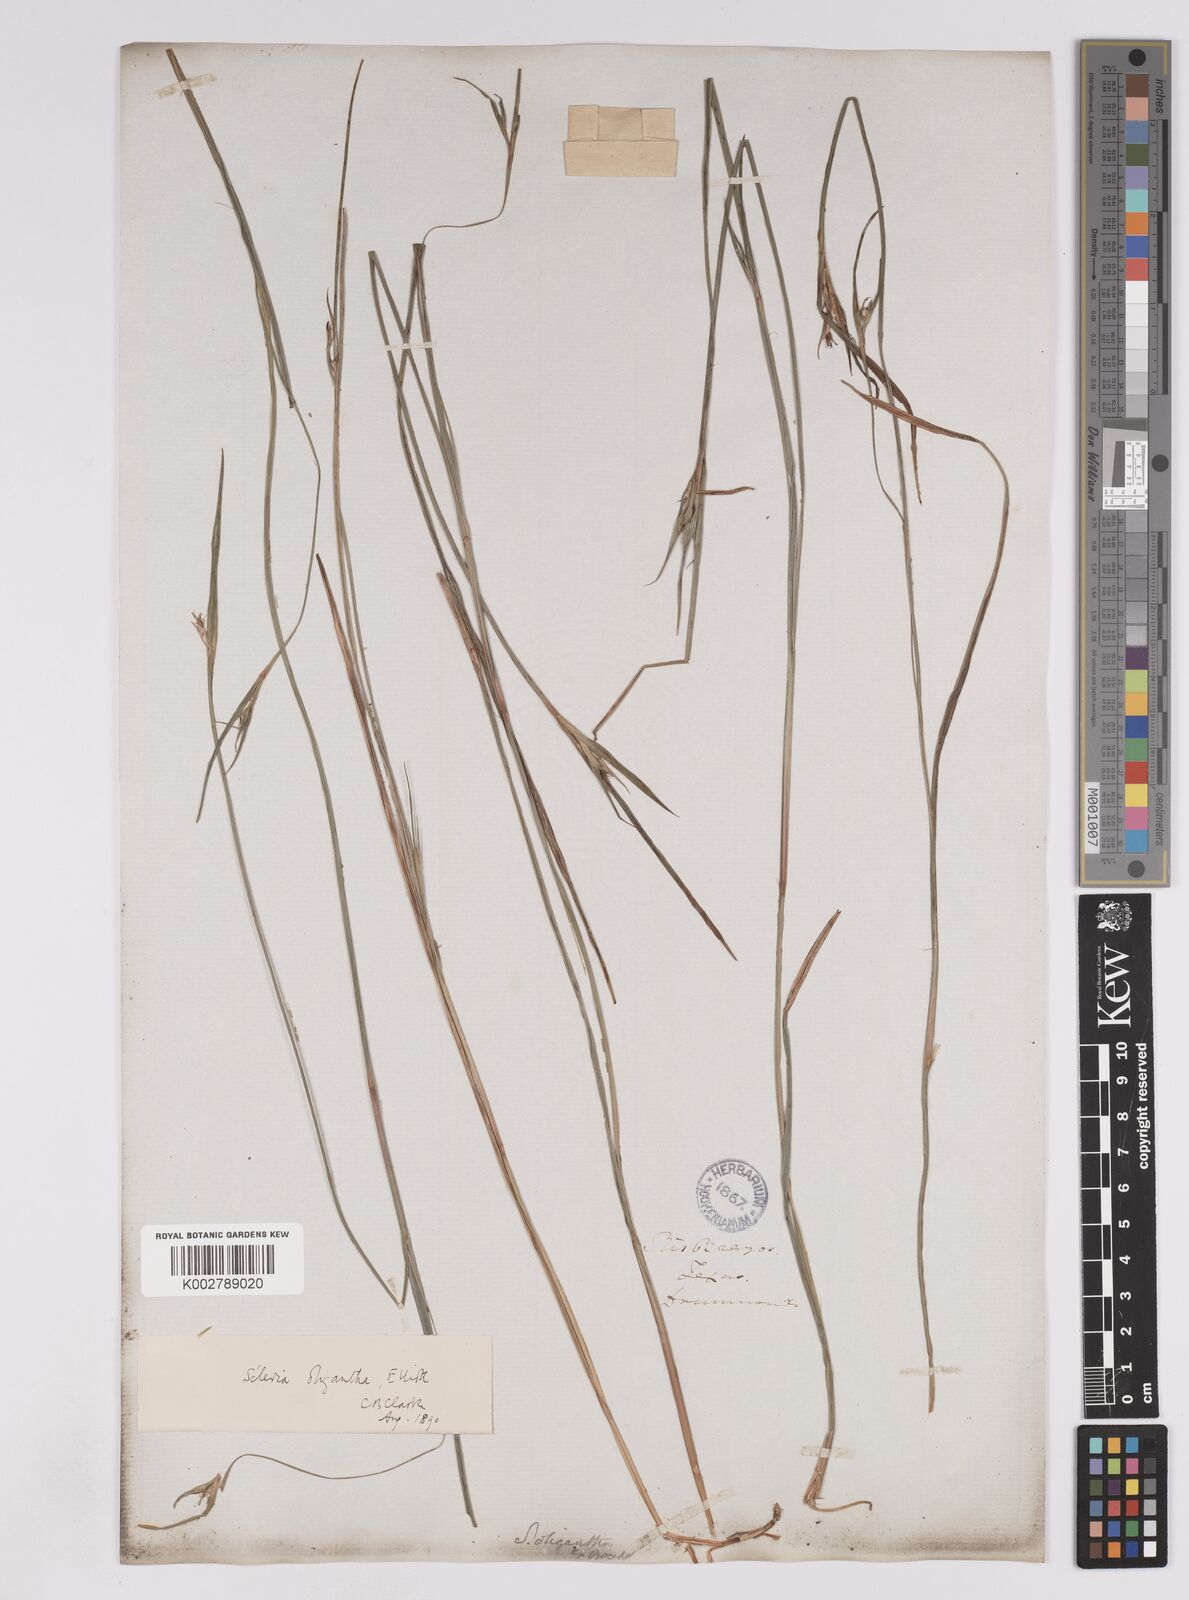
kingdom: Plantae
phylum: Tracheophyta
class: Liliopsida
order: Poales
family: Cyperaceae
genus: Scleria
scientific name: Scleria oligantha
